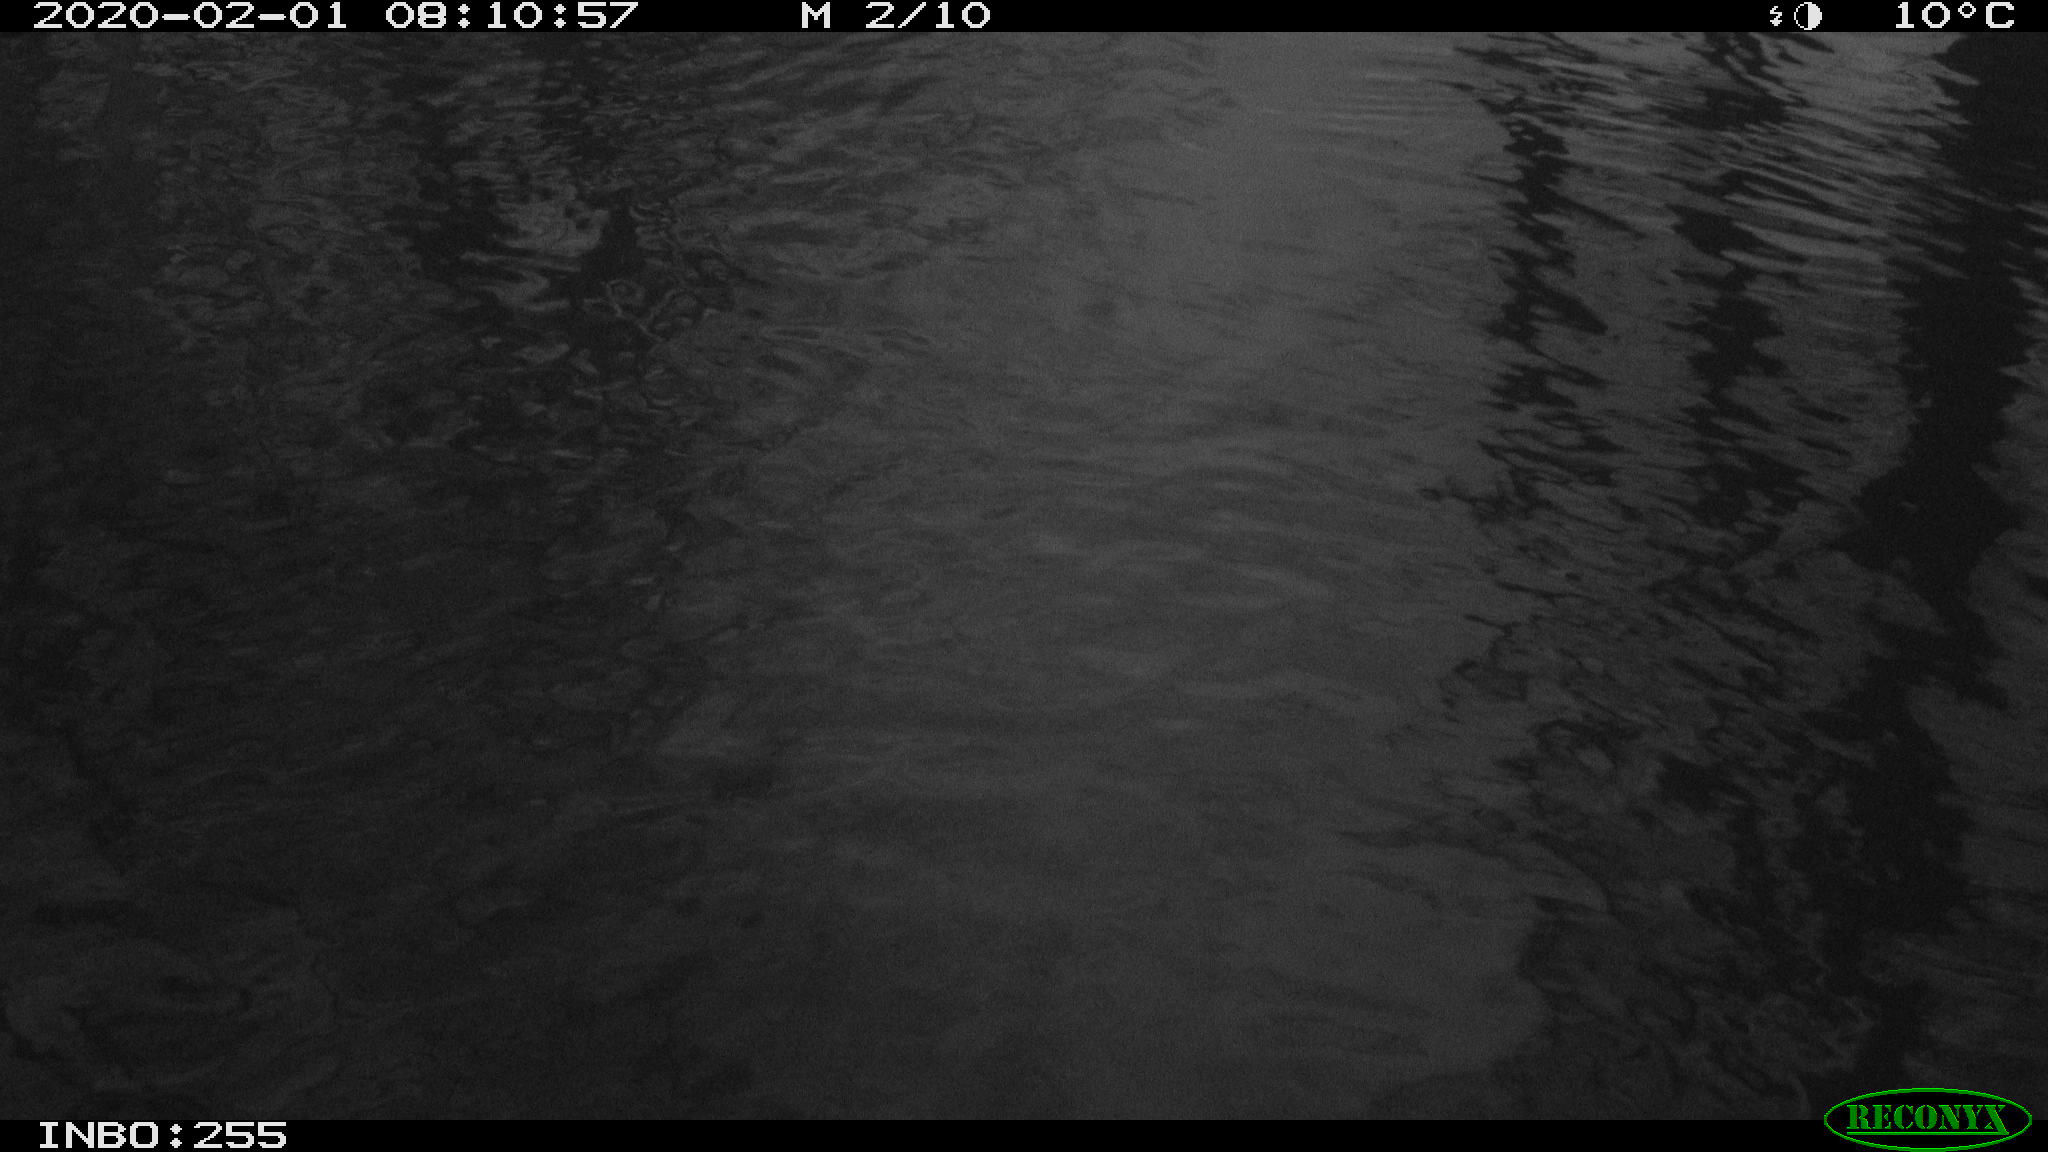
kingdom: Animalia
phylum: Chordata
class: Aves
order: Gruiformes
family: Rallidae
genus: Gallinula
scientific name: Gallinula chloropus
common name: Common moorhen
